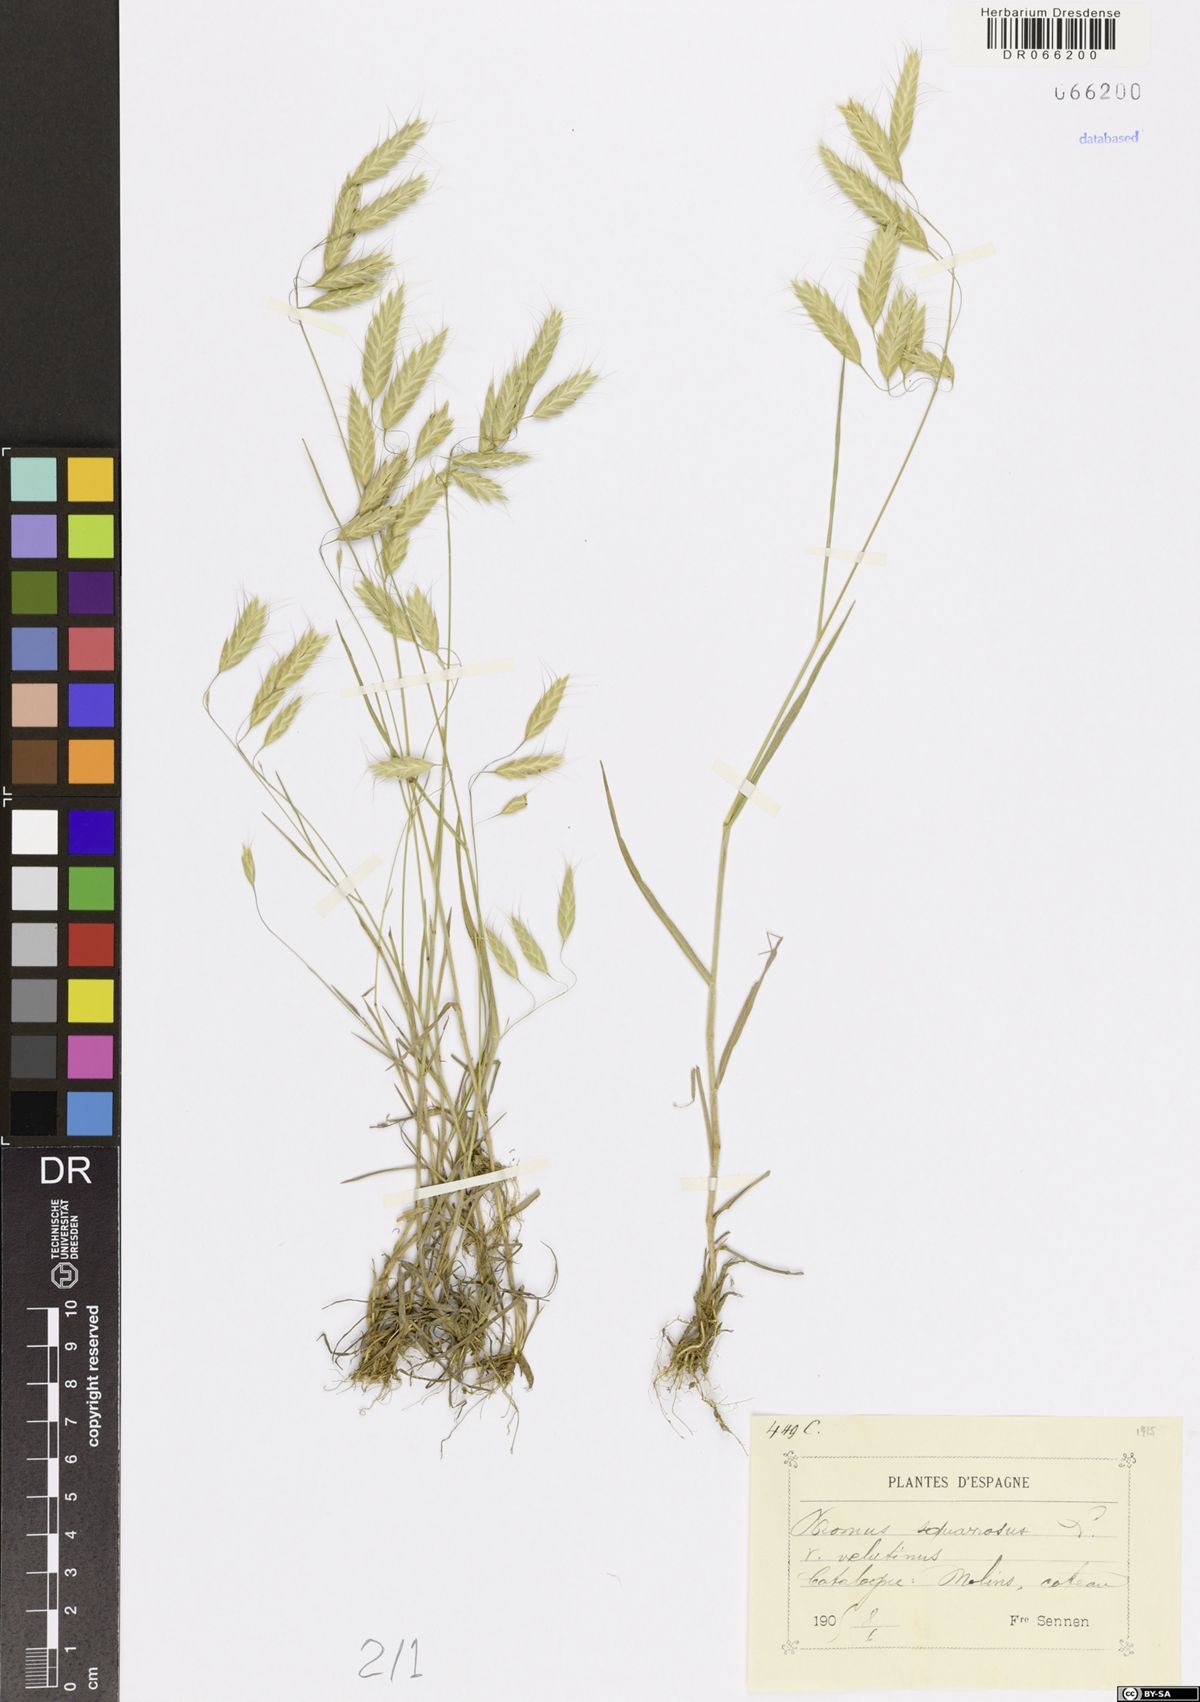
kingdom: Plantae
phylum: Tracheophyta
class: Liliopsida
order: Poales
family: Poaceae
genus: Bromus
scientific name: Bromus squarrosus
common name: Corn brome
